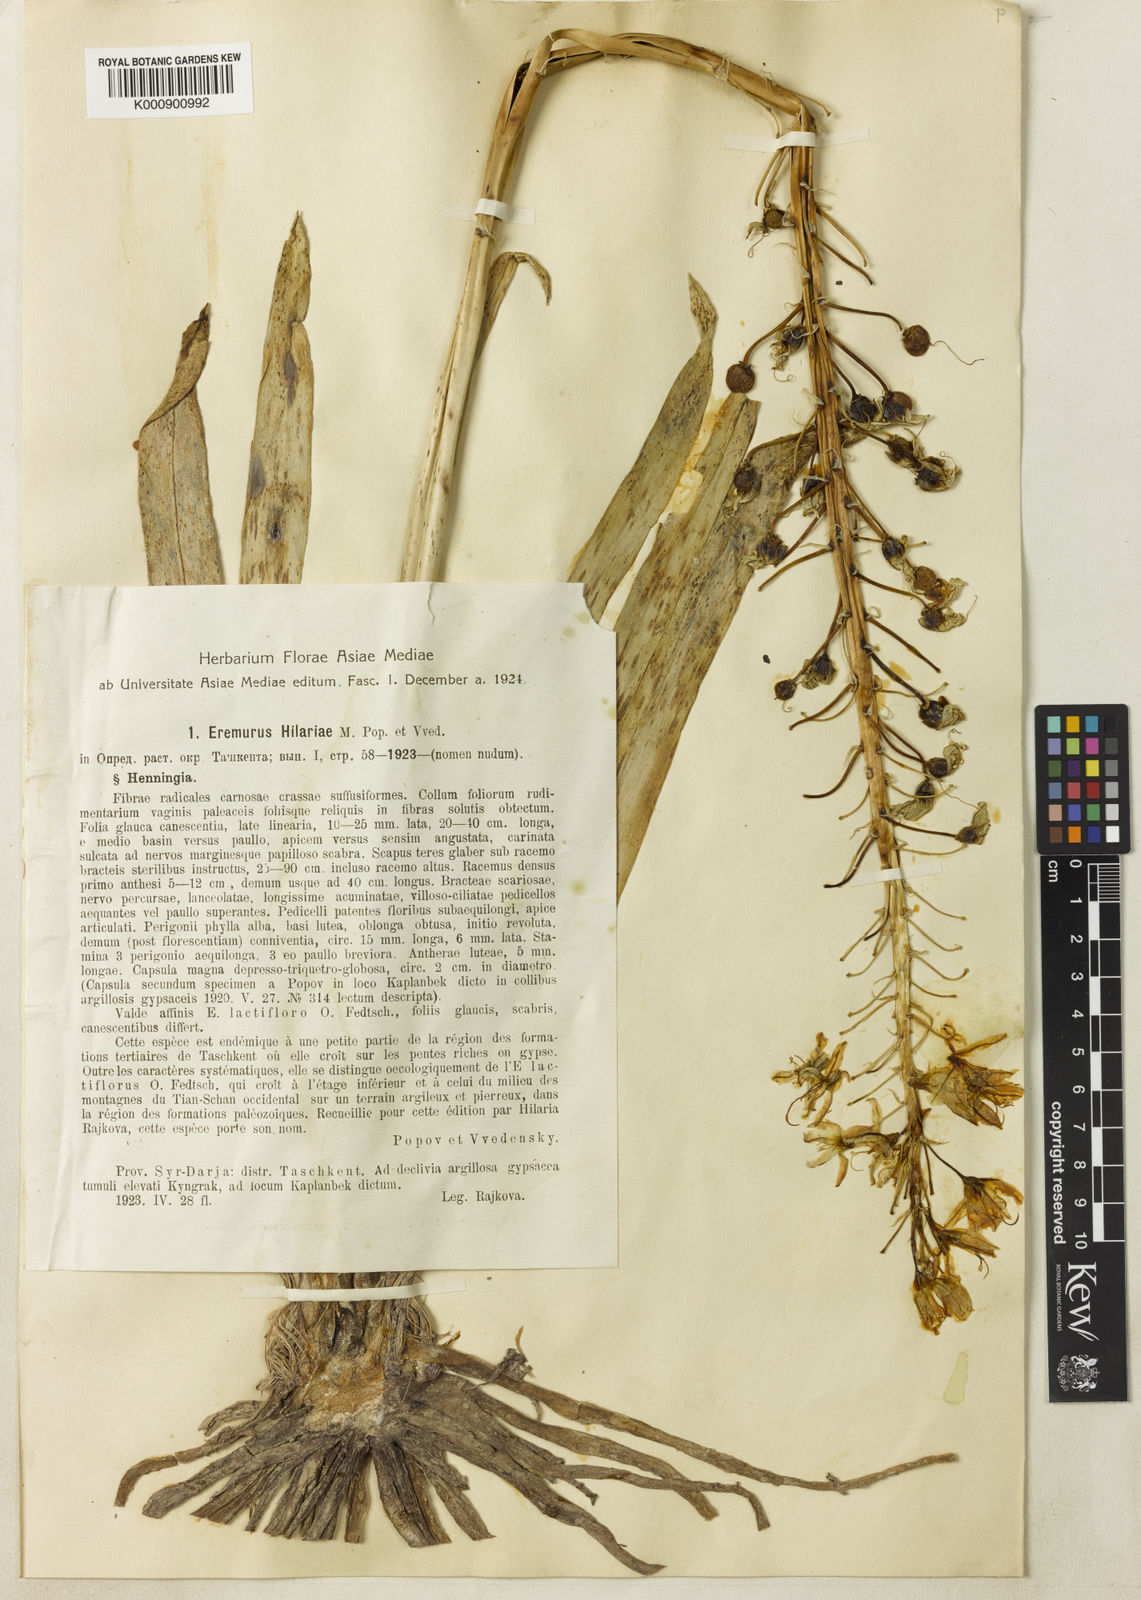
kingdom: Plantae
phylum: Tracheophyta
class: Liliopsida
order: Asparagales
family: Asphodelaceae
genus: Eremurus
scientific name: Eremurus hilariae
